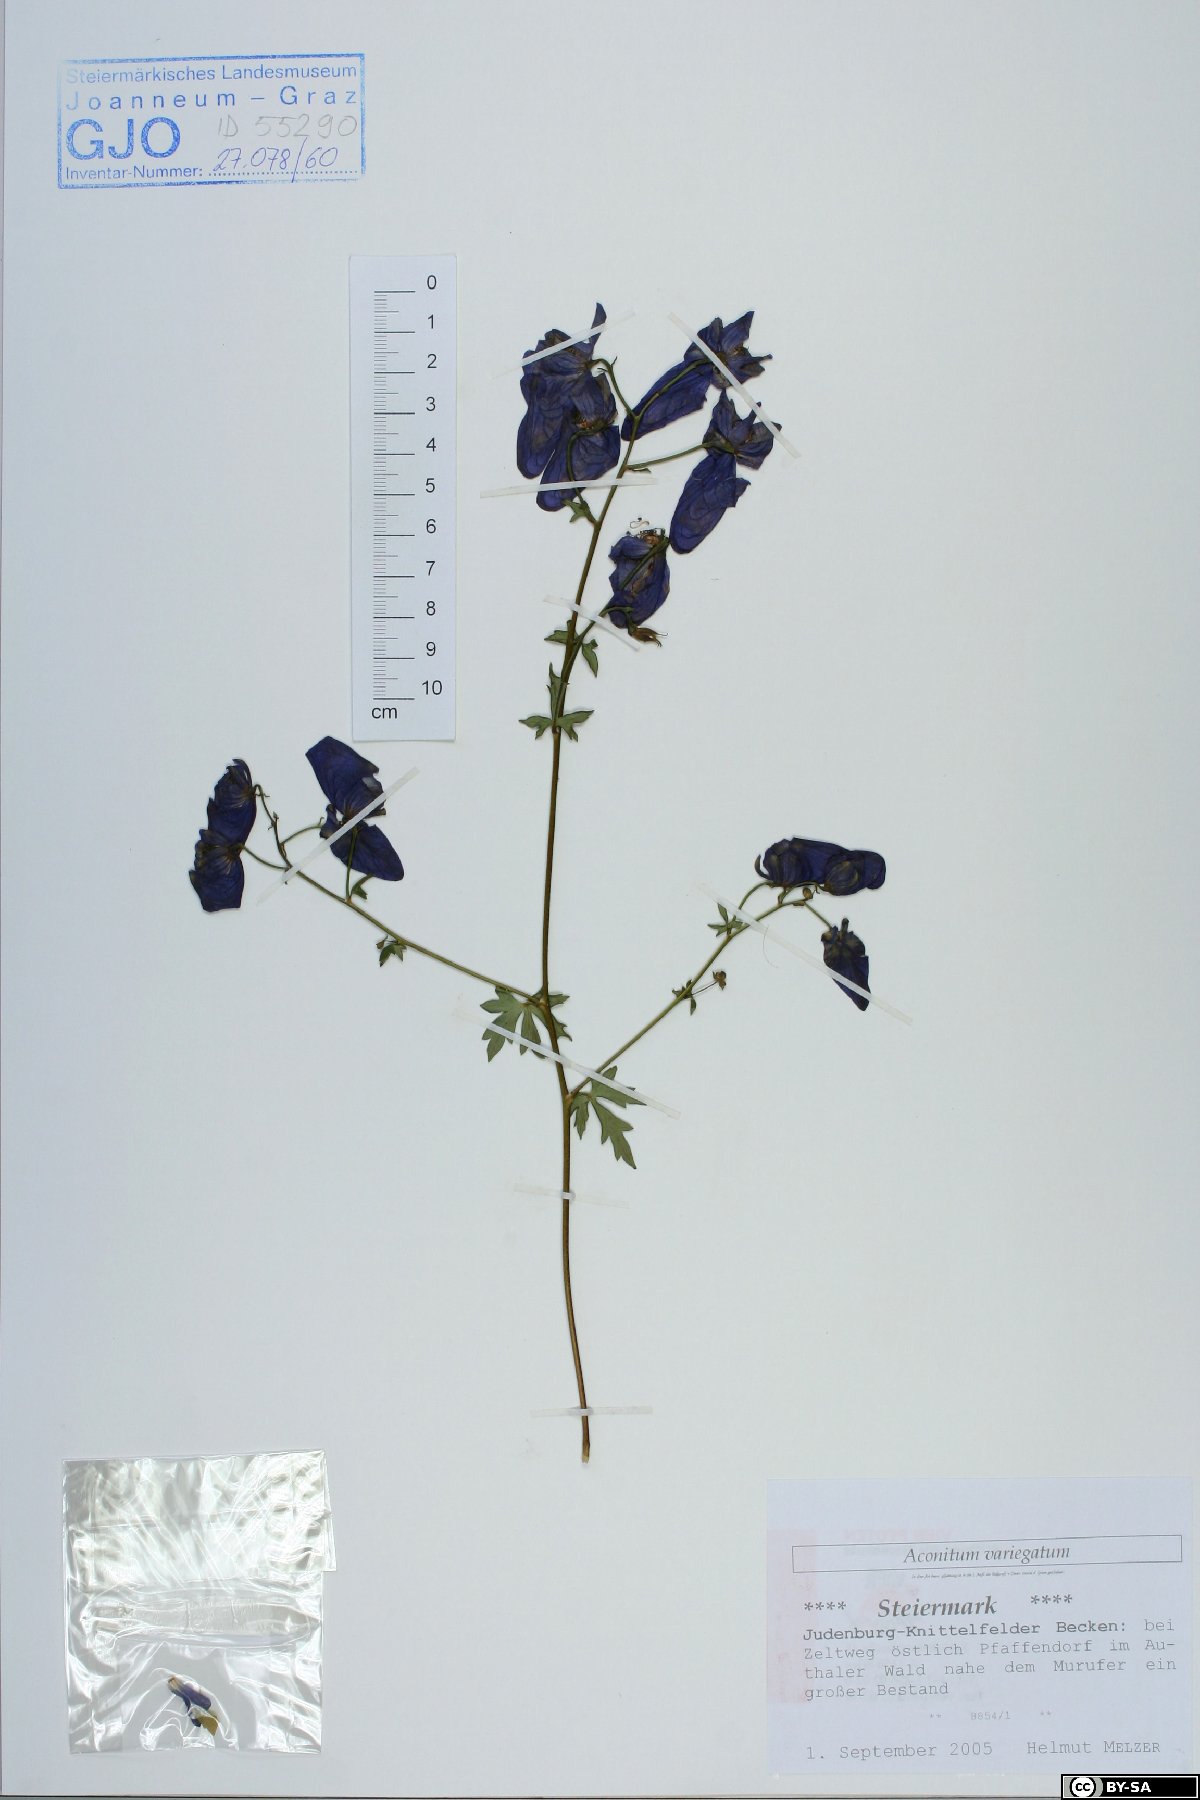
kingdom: Plantae
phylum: Tracheophyta
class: Magnoliopsida
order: Ranunculales
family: Ranunculaceae
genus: Aconitum
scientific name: Aconitum variegatum
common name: Manchurian monkshood
